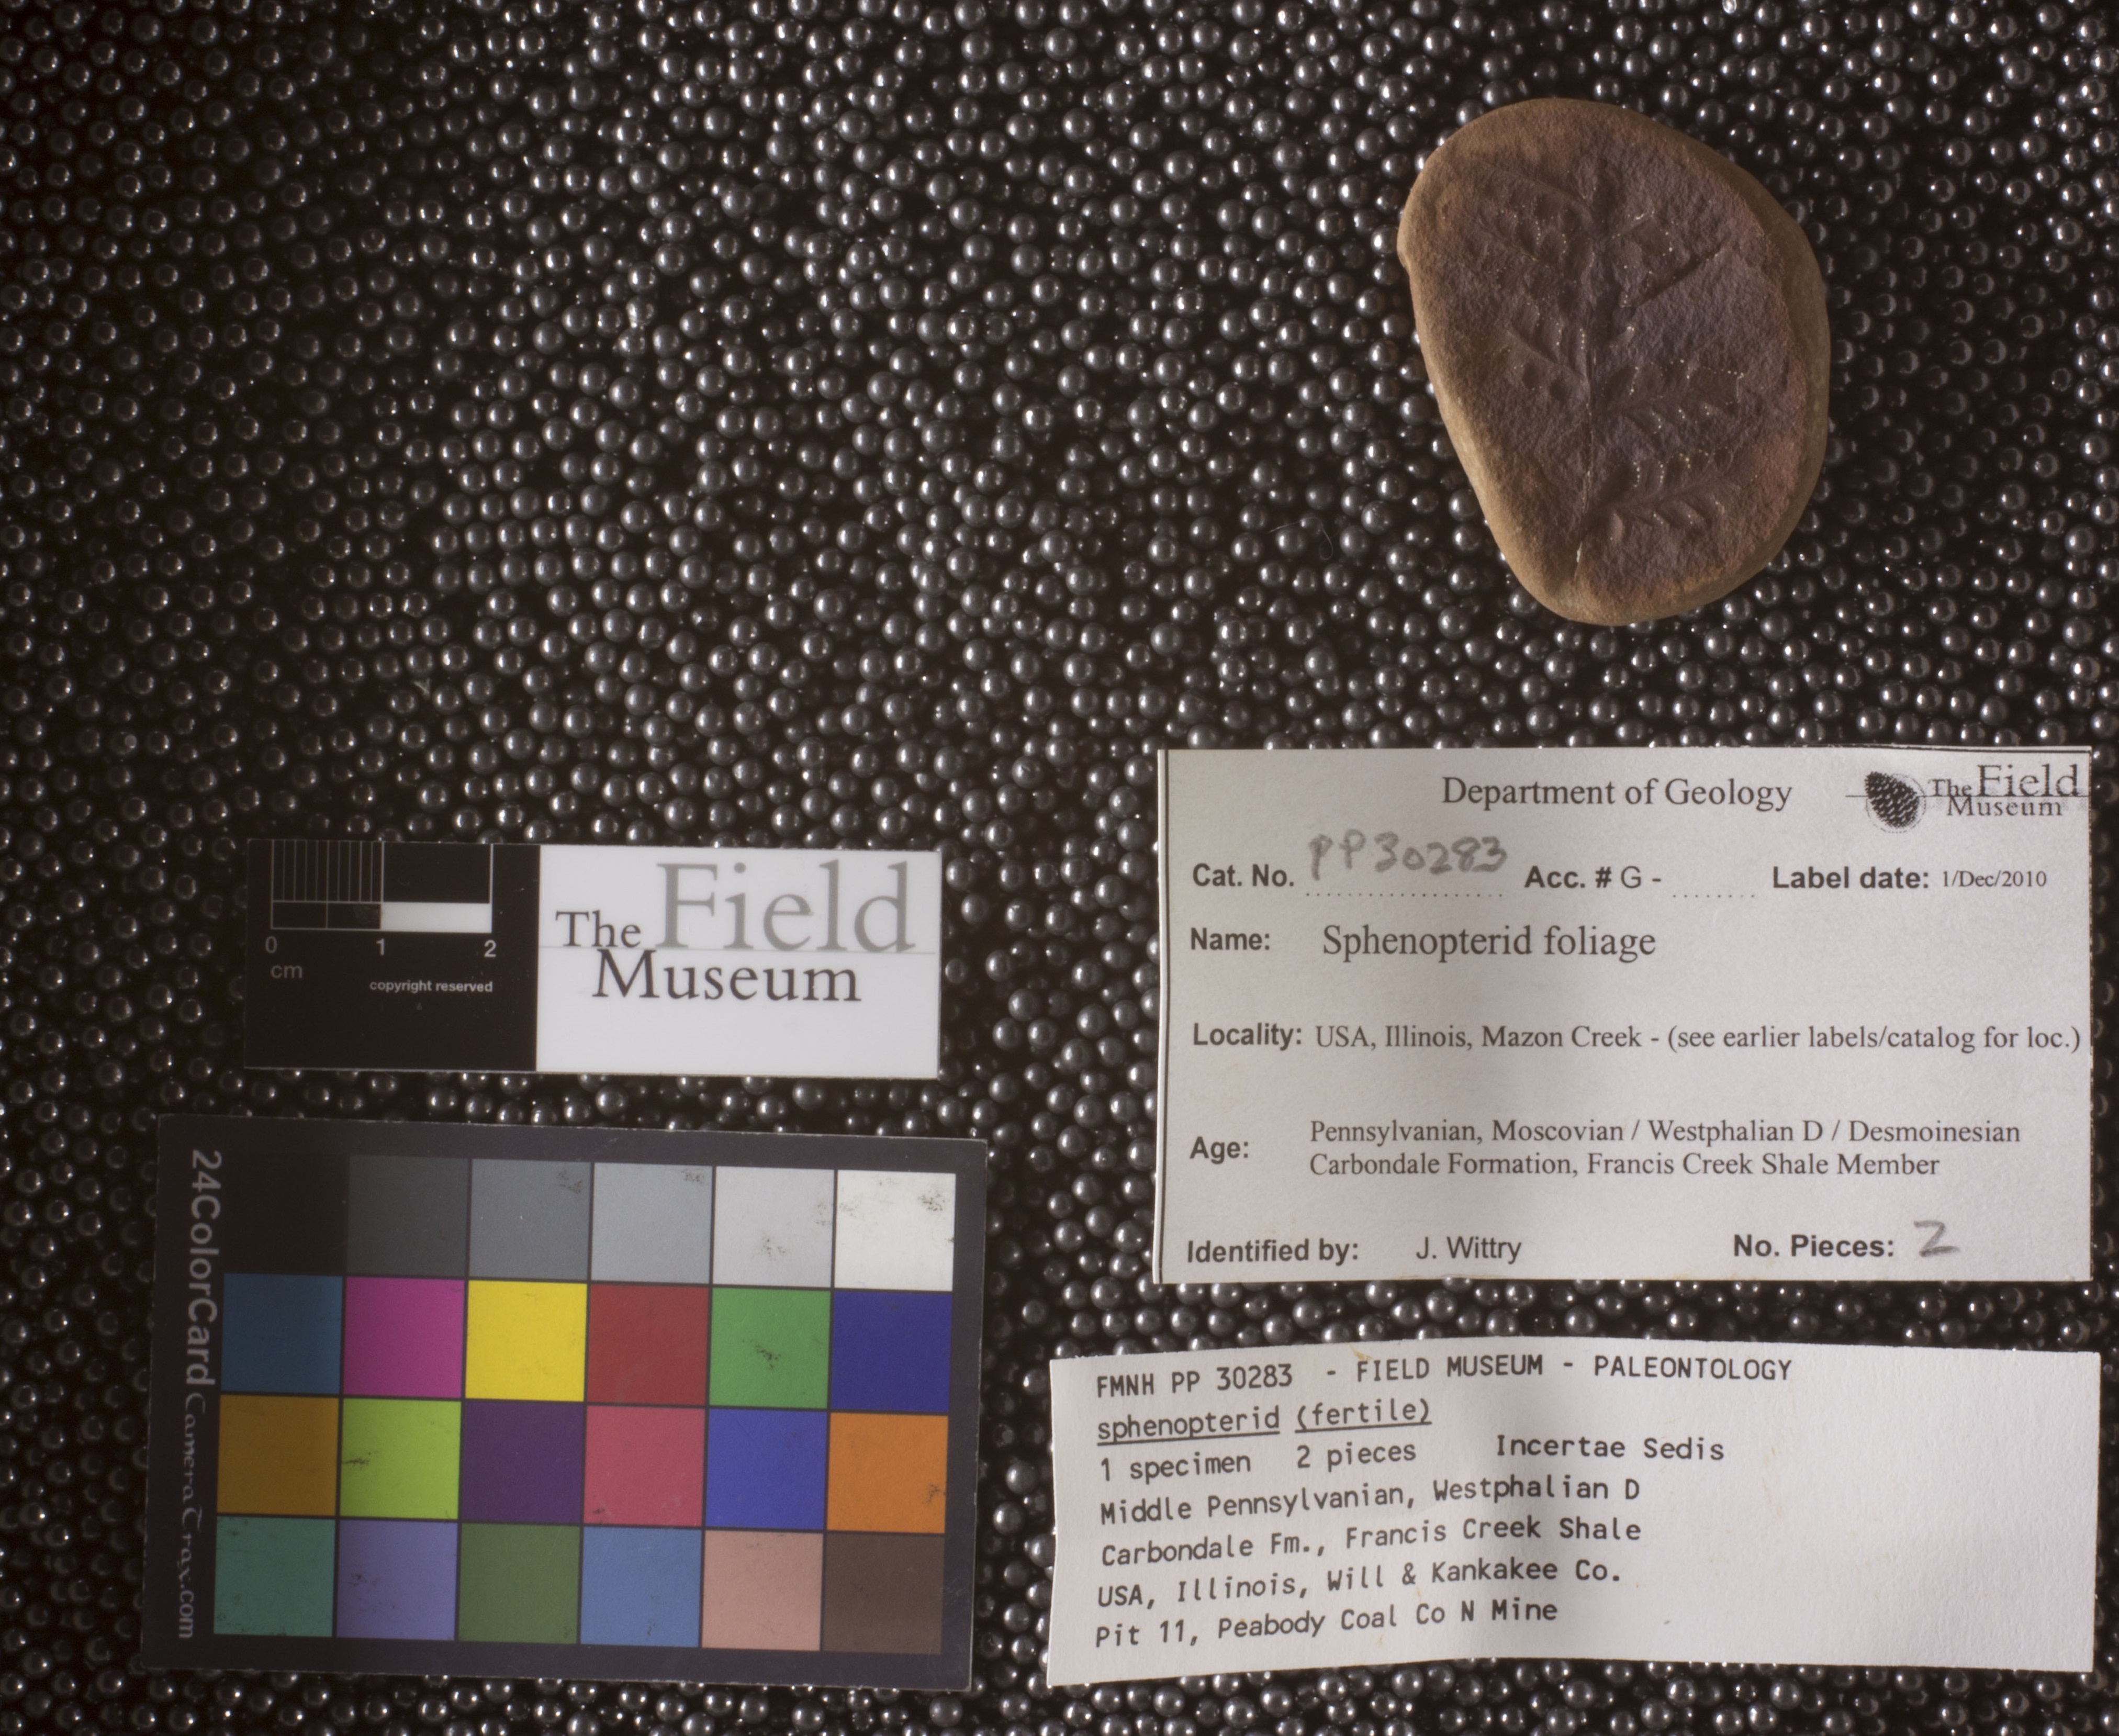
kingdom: Plantae
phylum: Tracheophyta
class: Polypodiopsida
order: Marattiales
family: Asterothecaceae
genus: Pecopteris
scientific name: Pecopteris
